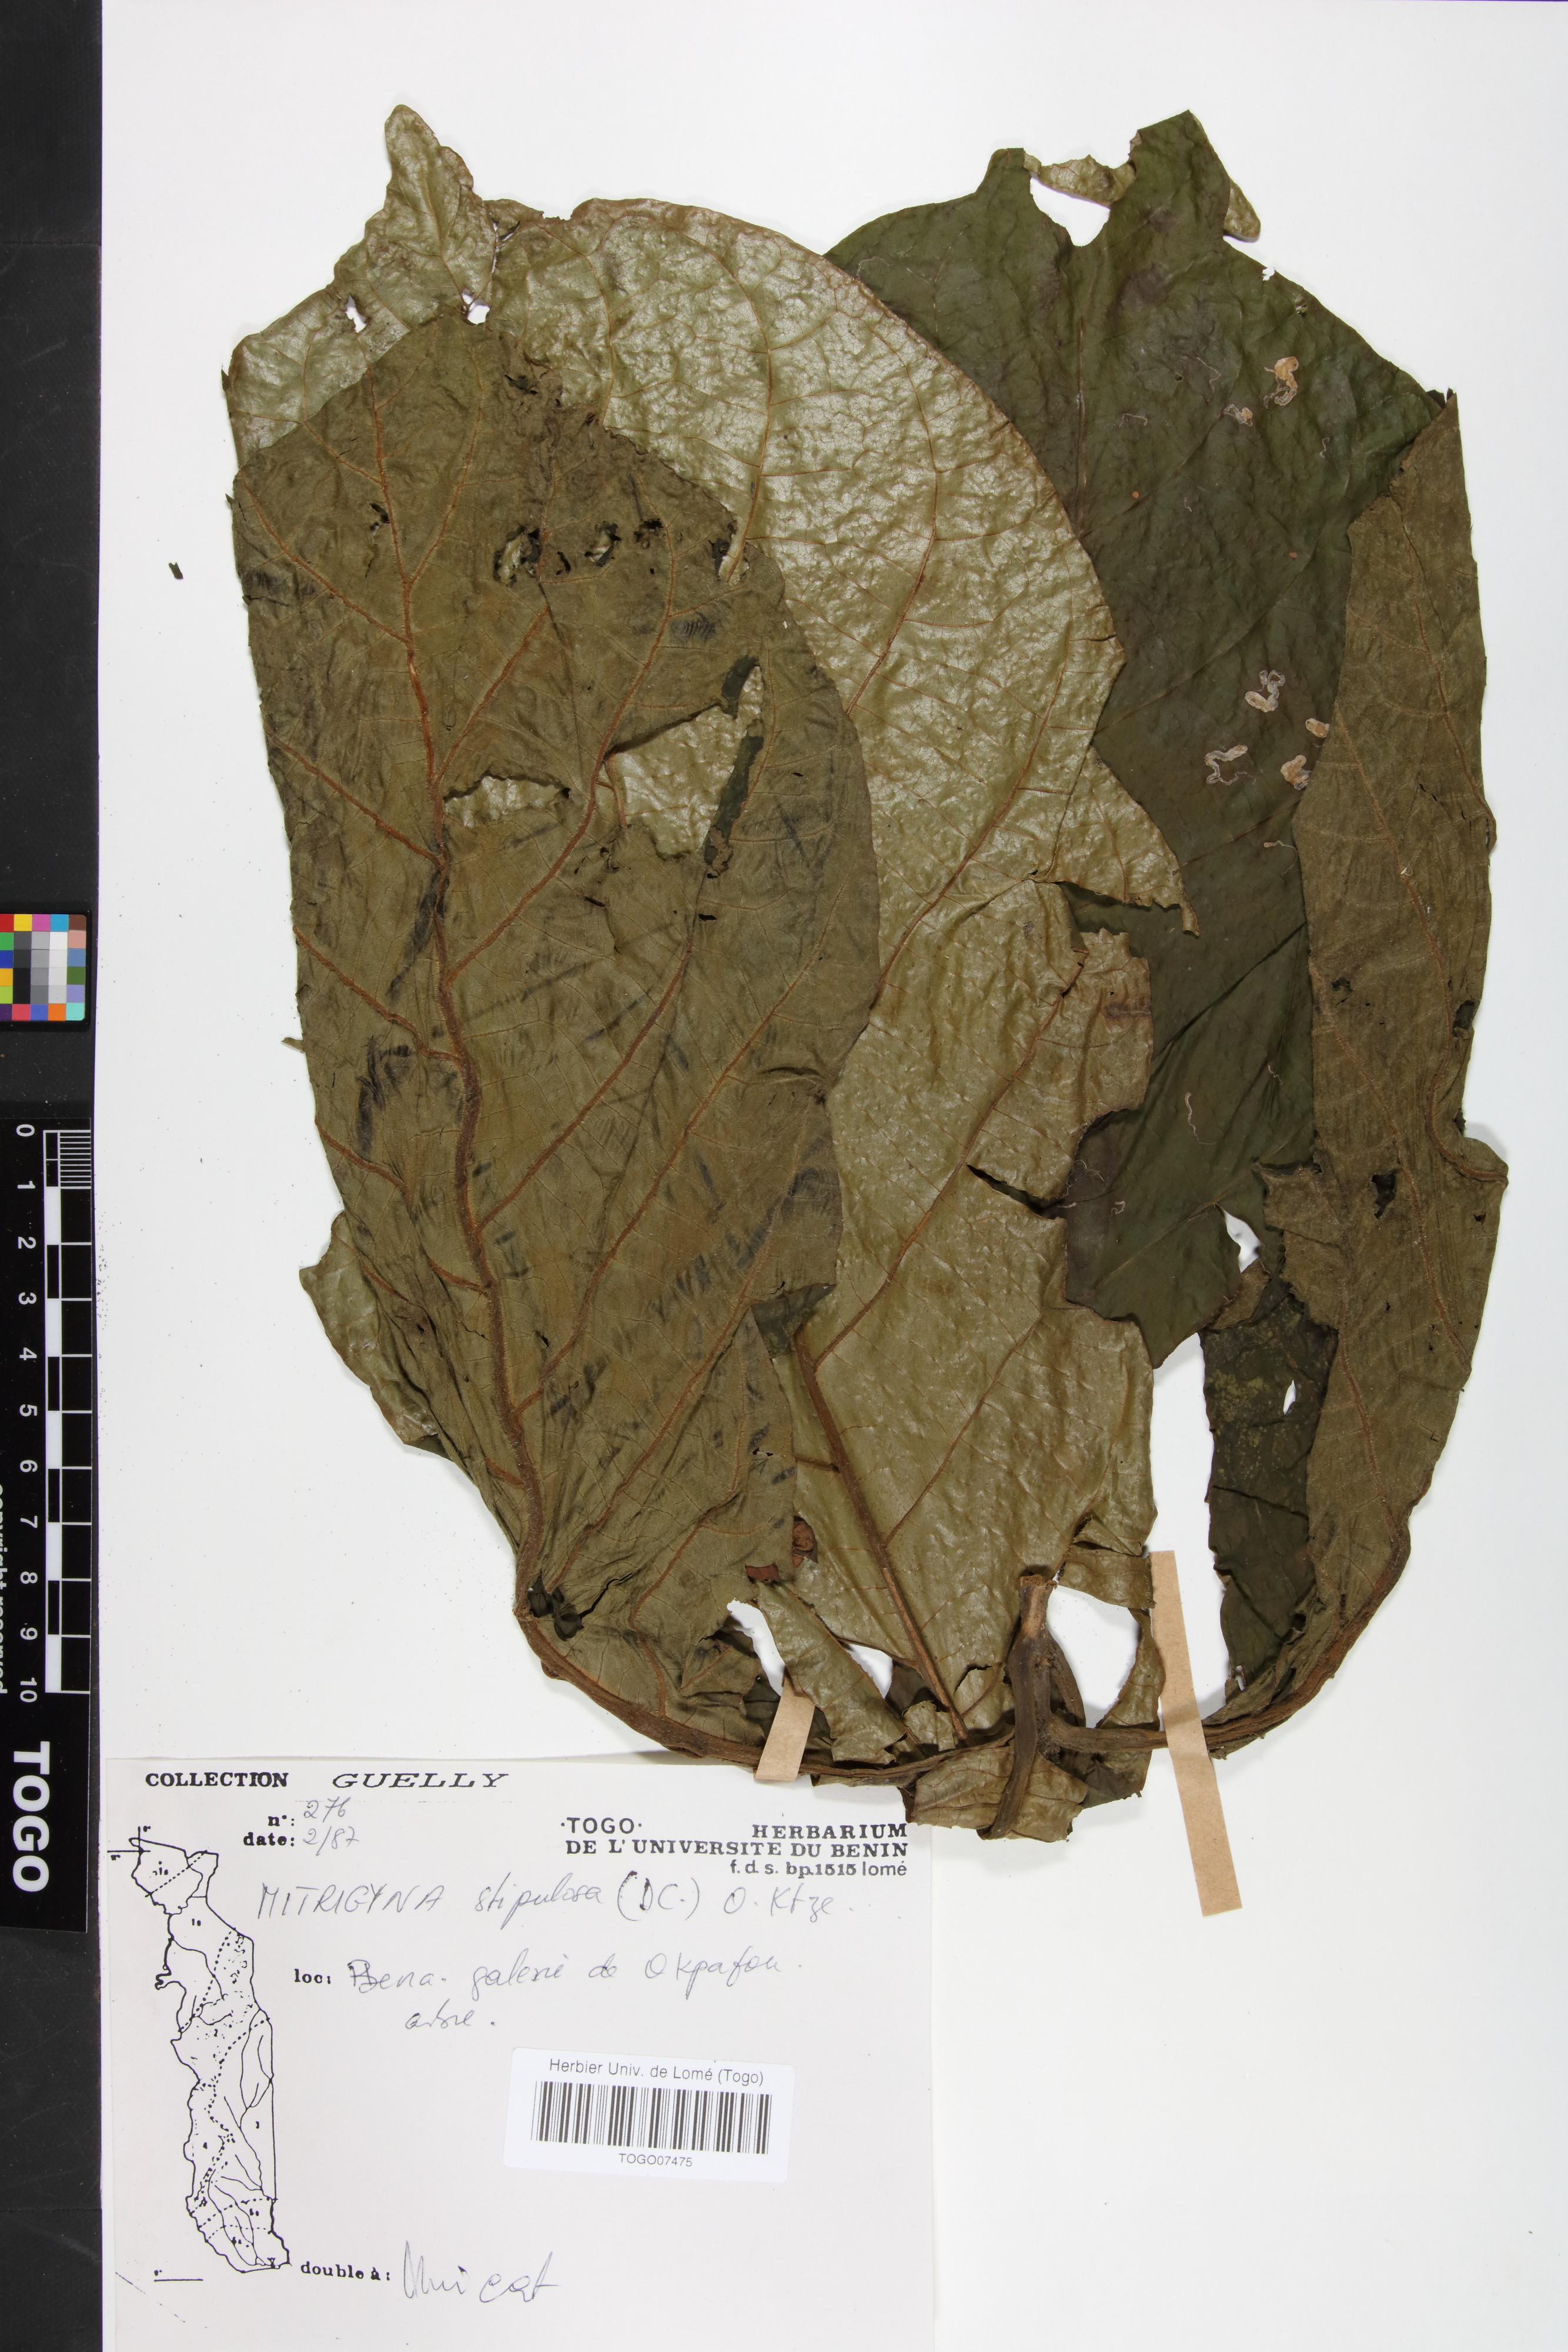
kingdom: Plantae
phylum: Tracheophyta
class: Magnoliopsida
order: Gentianales
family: Rubiaceae
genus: Mitragyna
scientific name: Mitragyna stipulosa
